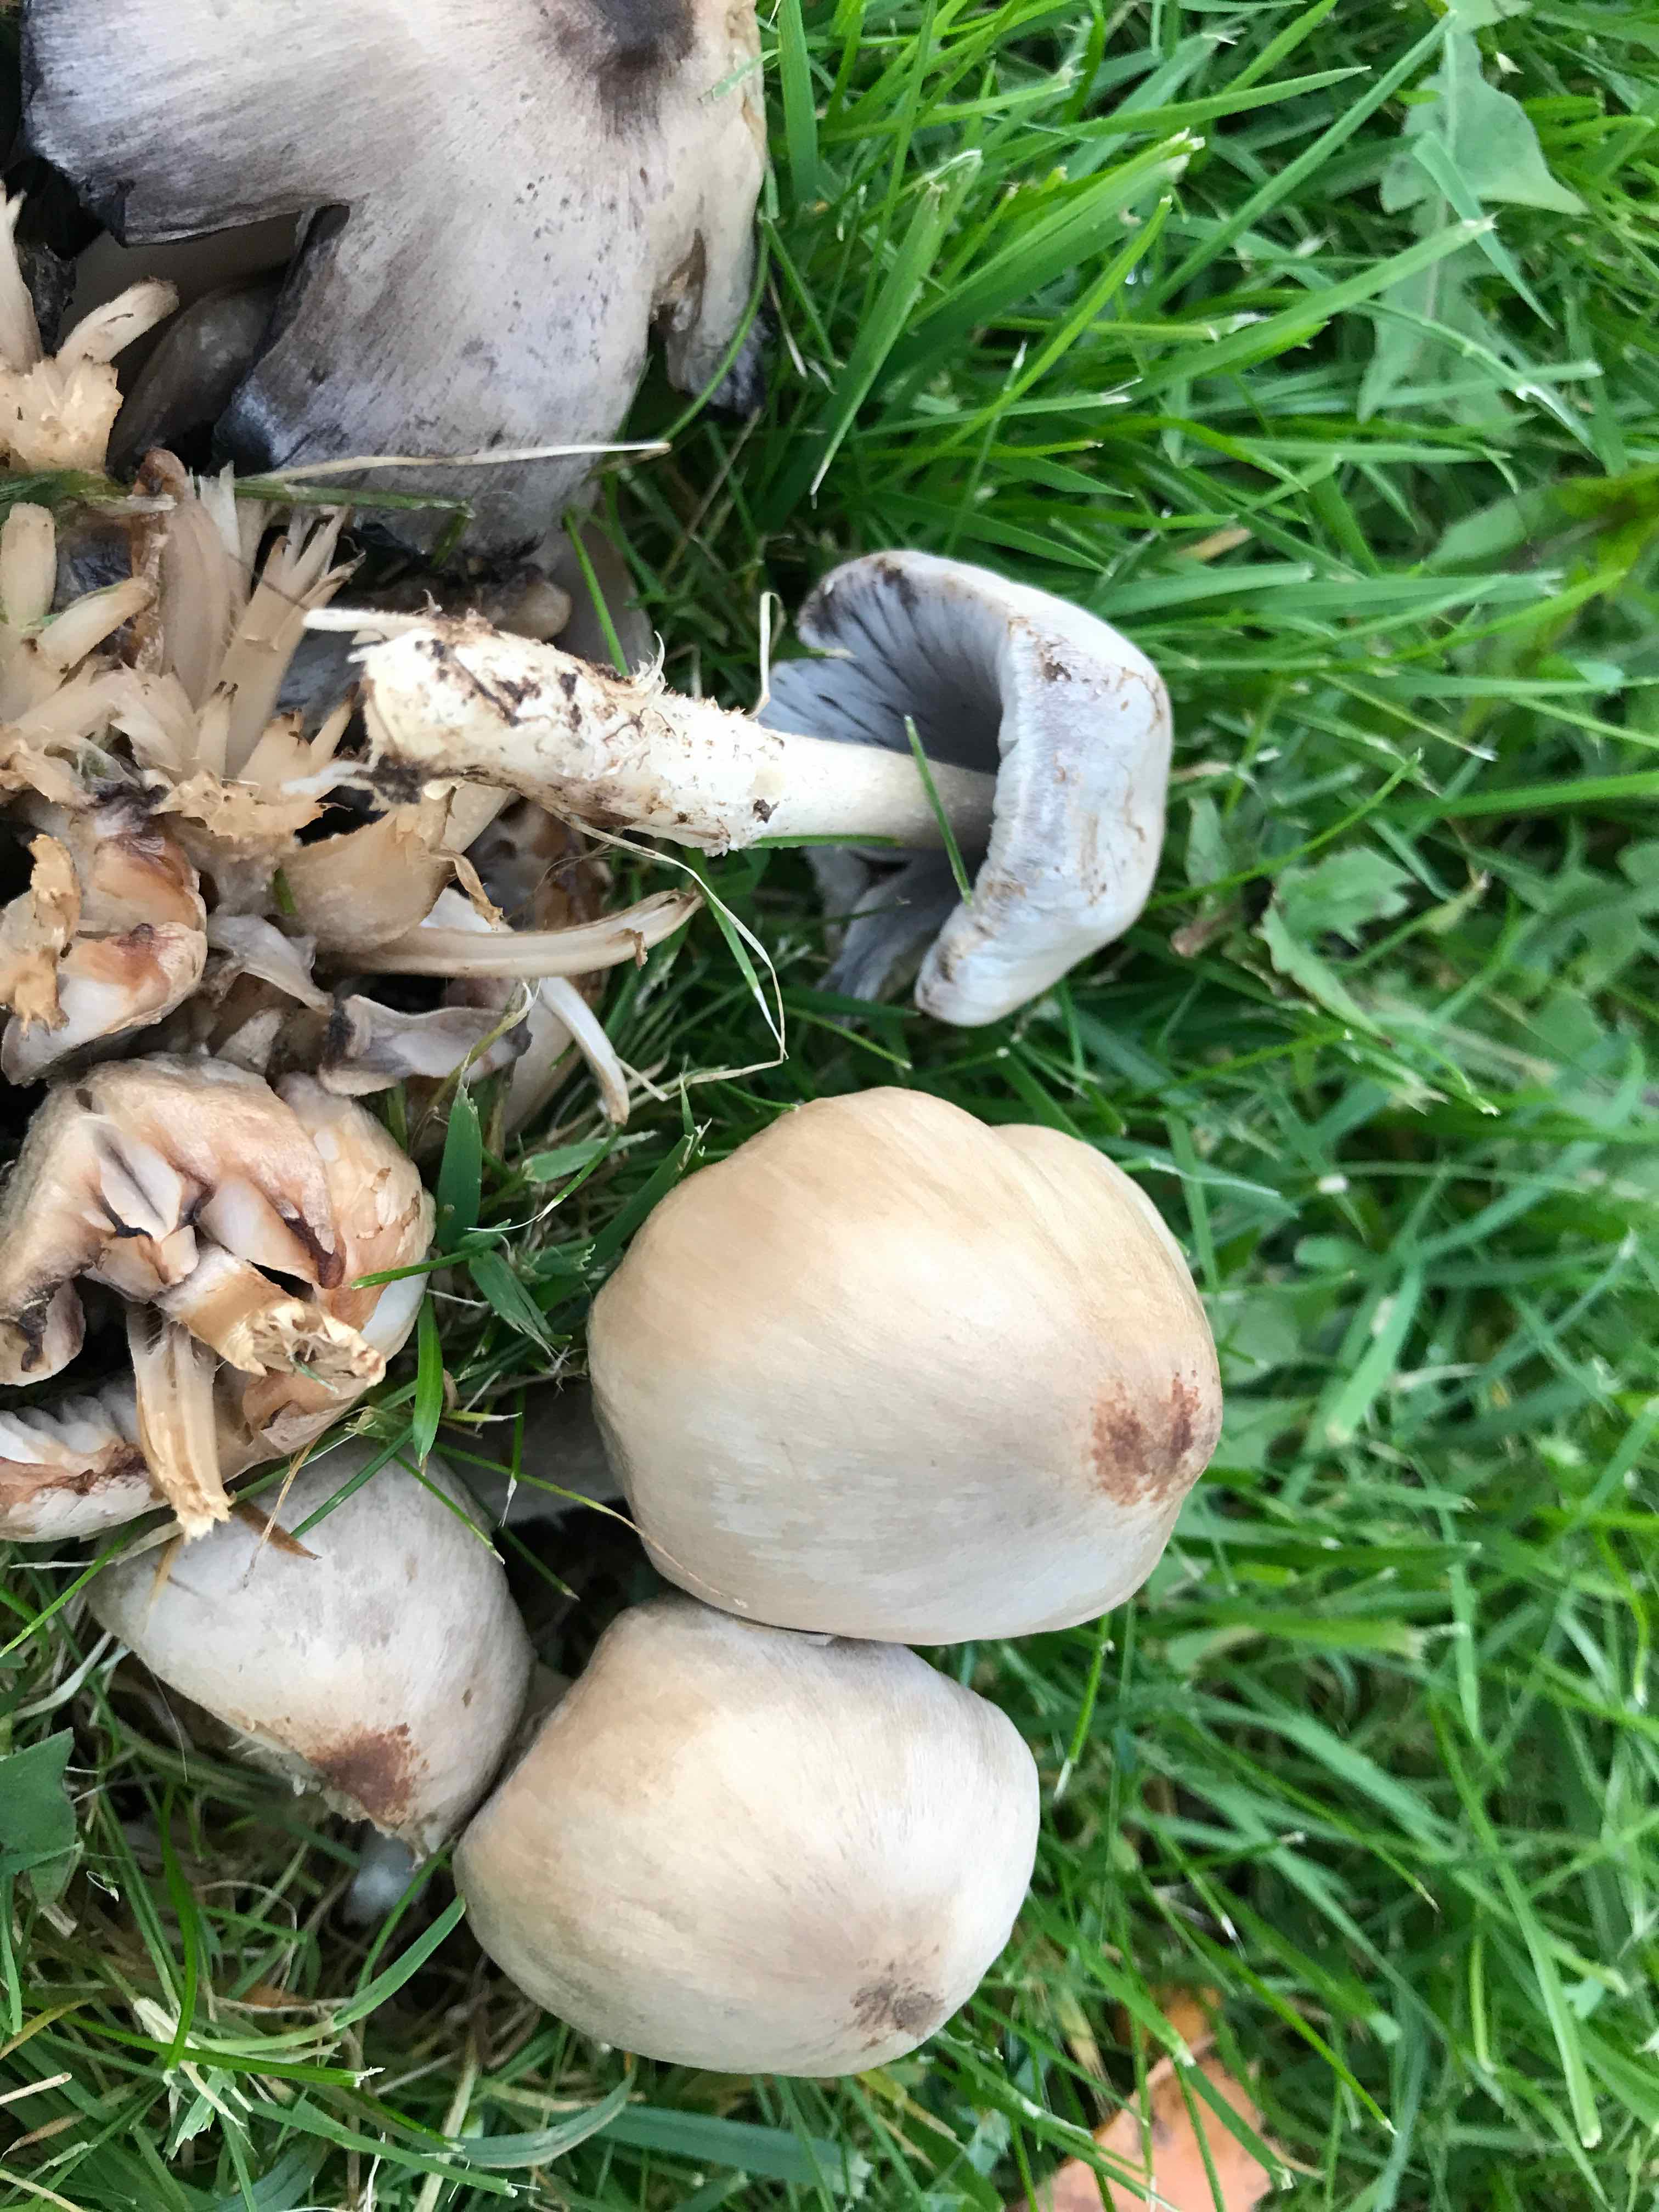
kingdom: Fungi
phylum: Basidiomycota
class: Agaricomycetes
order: Agaricales
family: Psathyrellaceae
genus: Coprinopsis
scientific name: Coprinopsis atramentaria
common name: almindelig blækhat
